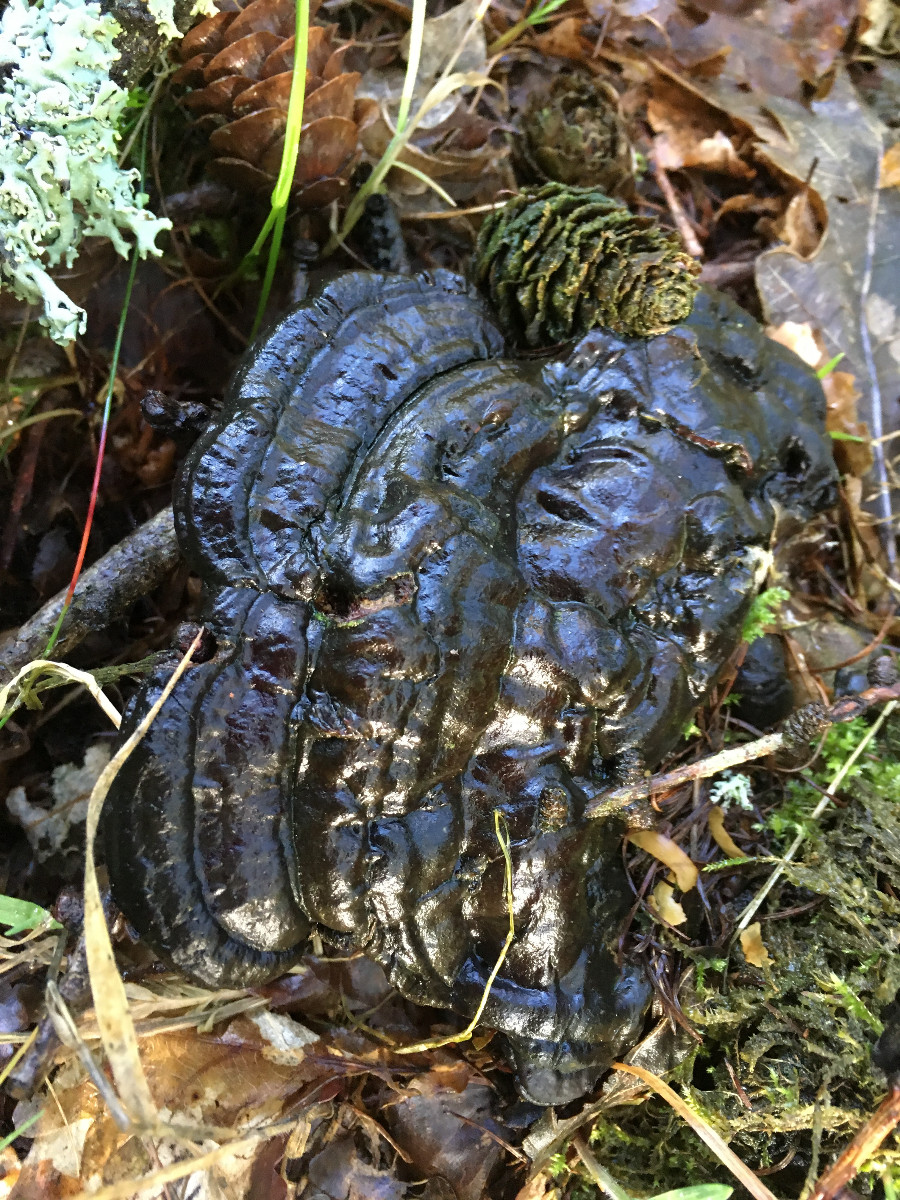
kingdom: Fungi
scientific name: Fungi
